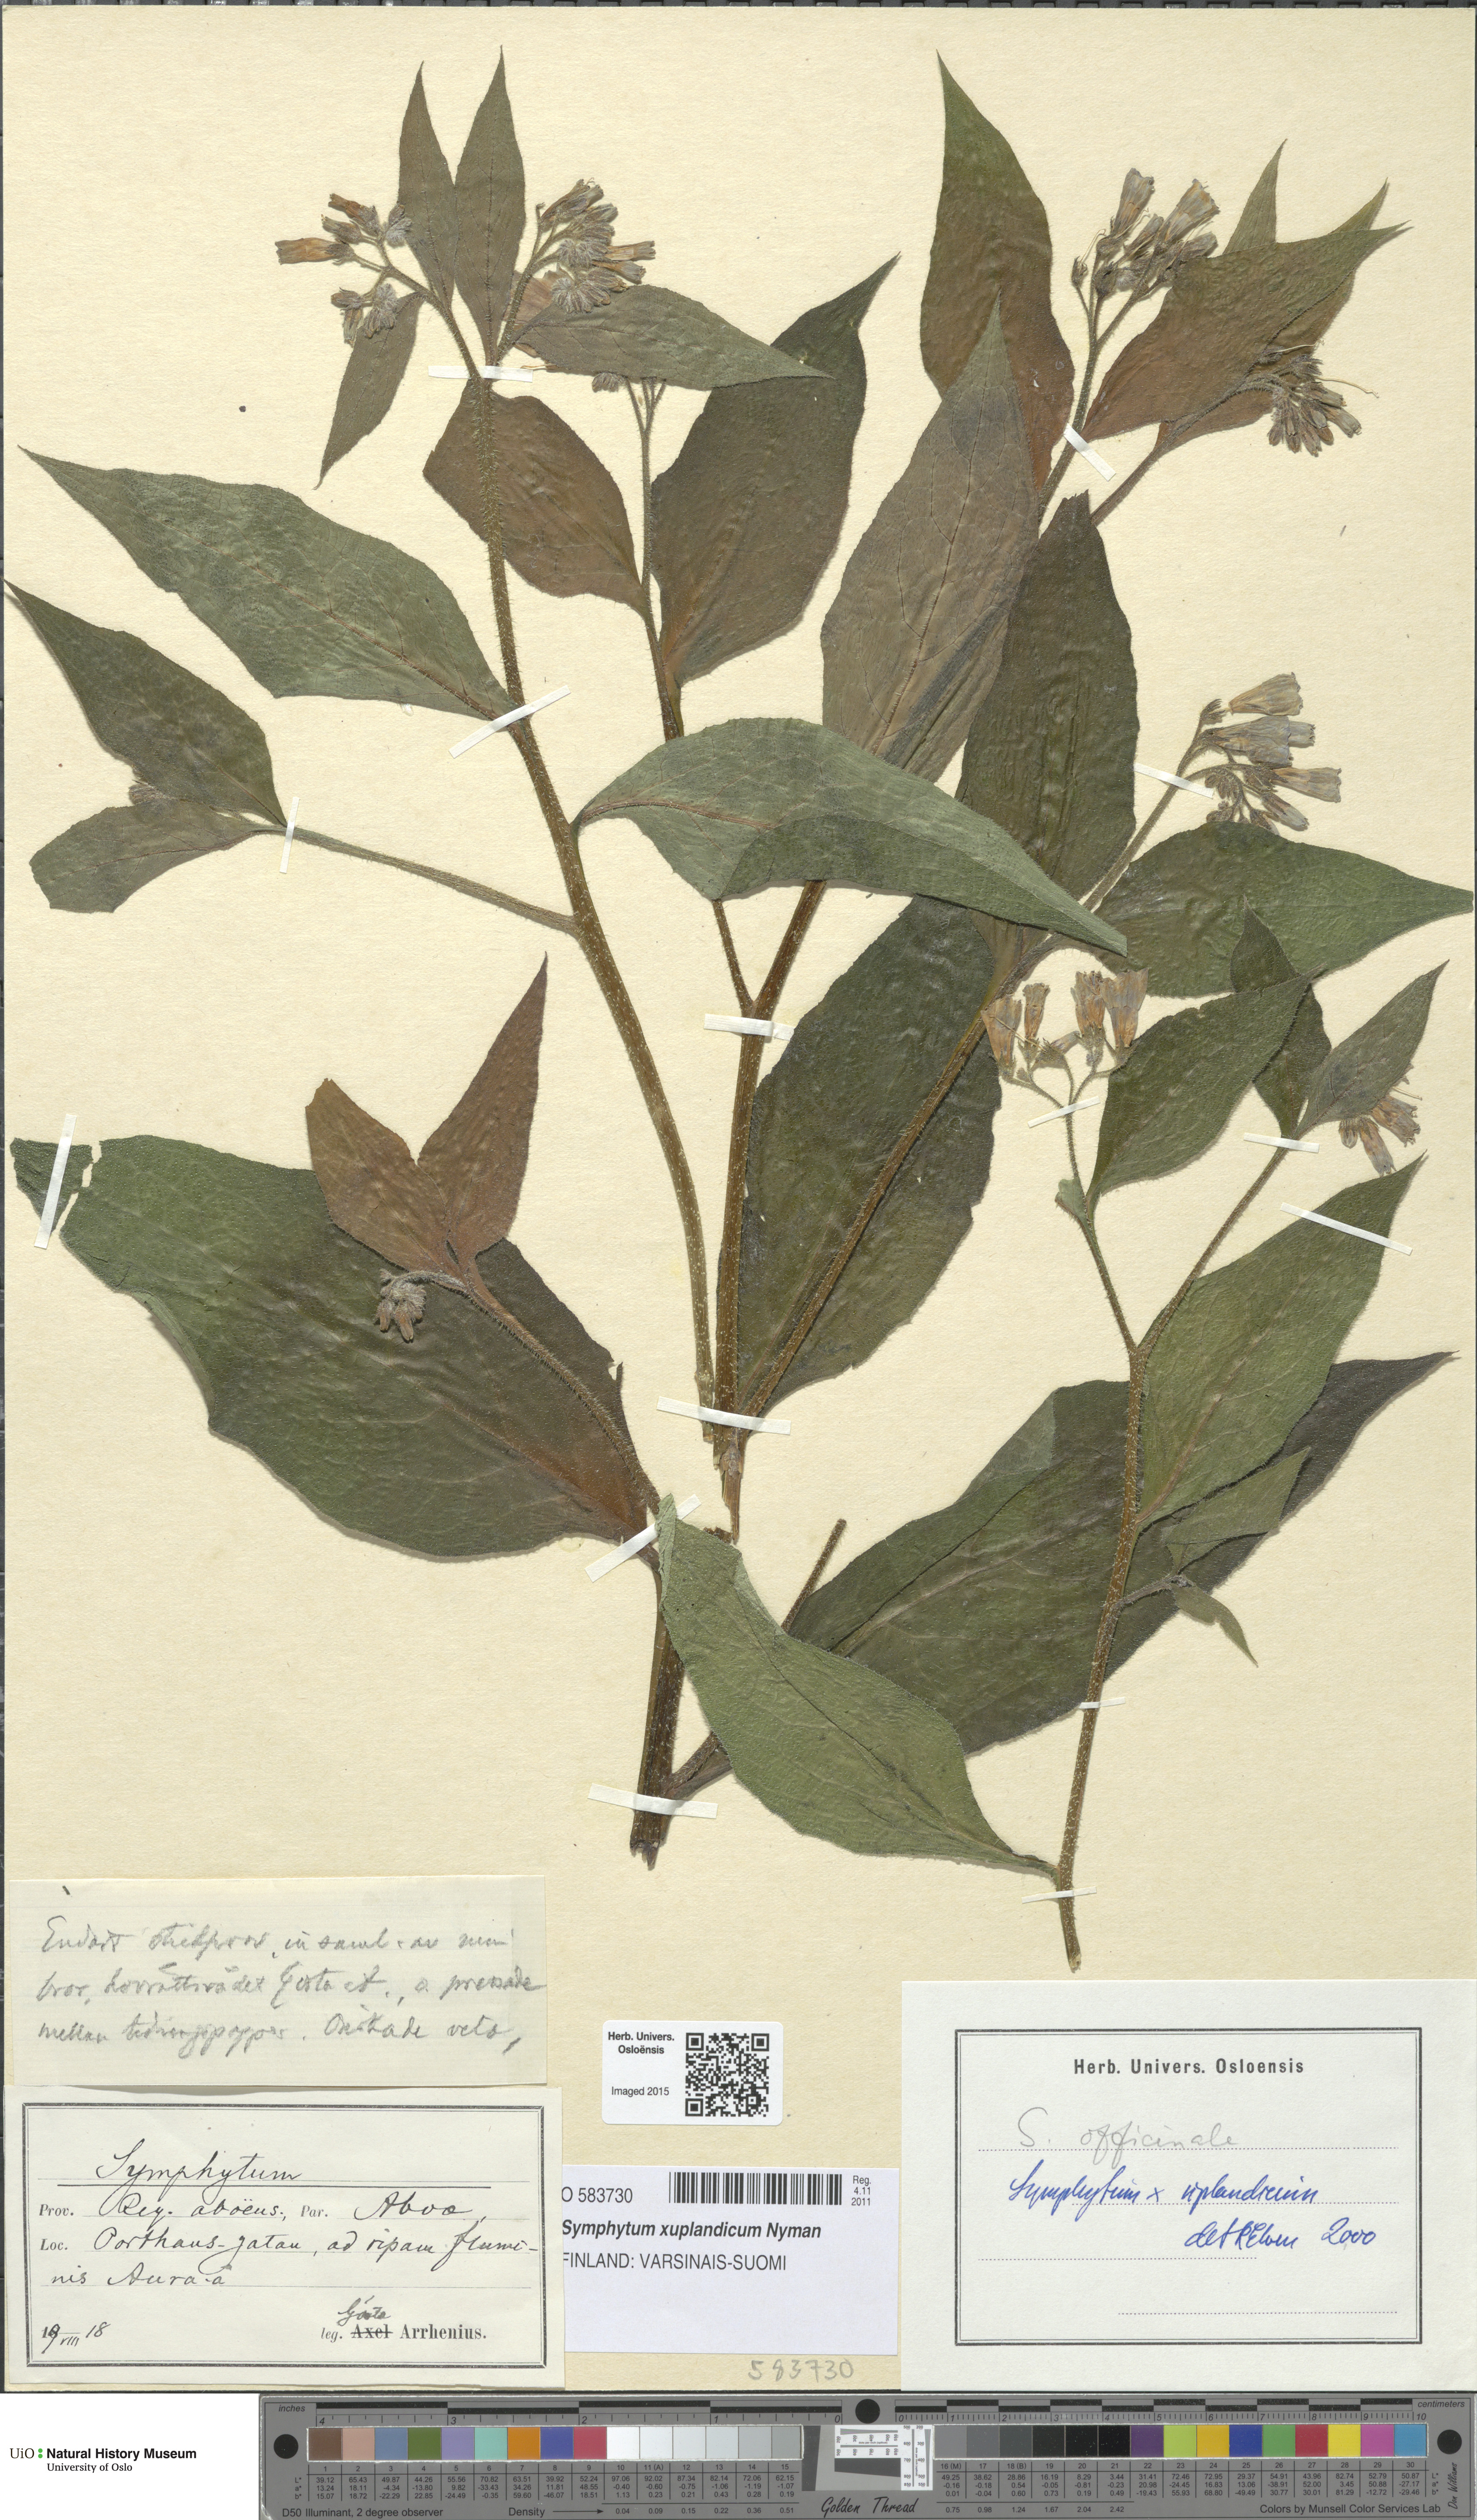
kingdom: Plantae
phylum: Tracheophyta
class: Magnoliopsida
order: Boraginales
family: Boraginaceae
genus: Symphytum
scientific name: Symphytum uplandicum
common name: Russian comfrey
